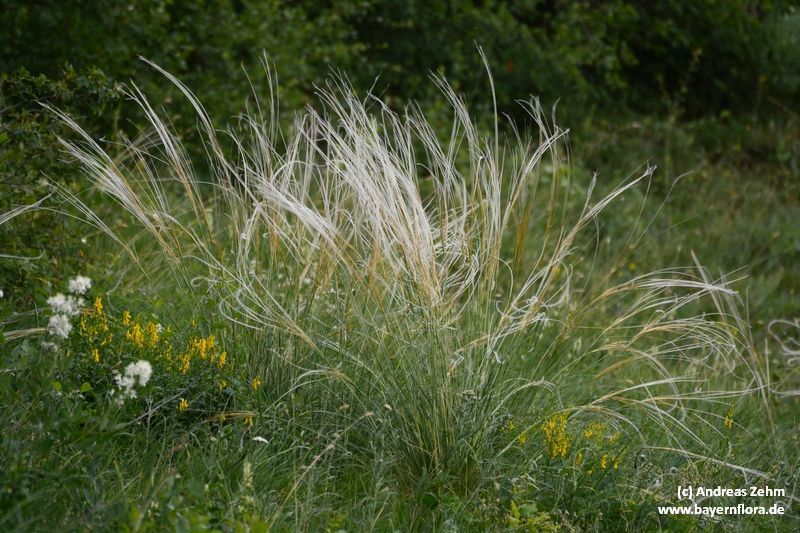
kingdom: Plantae
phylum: Tracheophyta
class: Liliopsida
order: Poales
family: Poaceae
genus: Stipa
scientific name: Stipa pulcherrima
